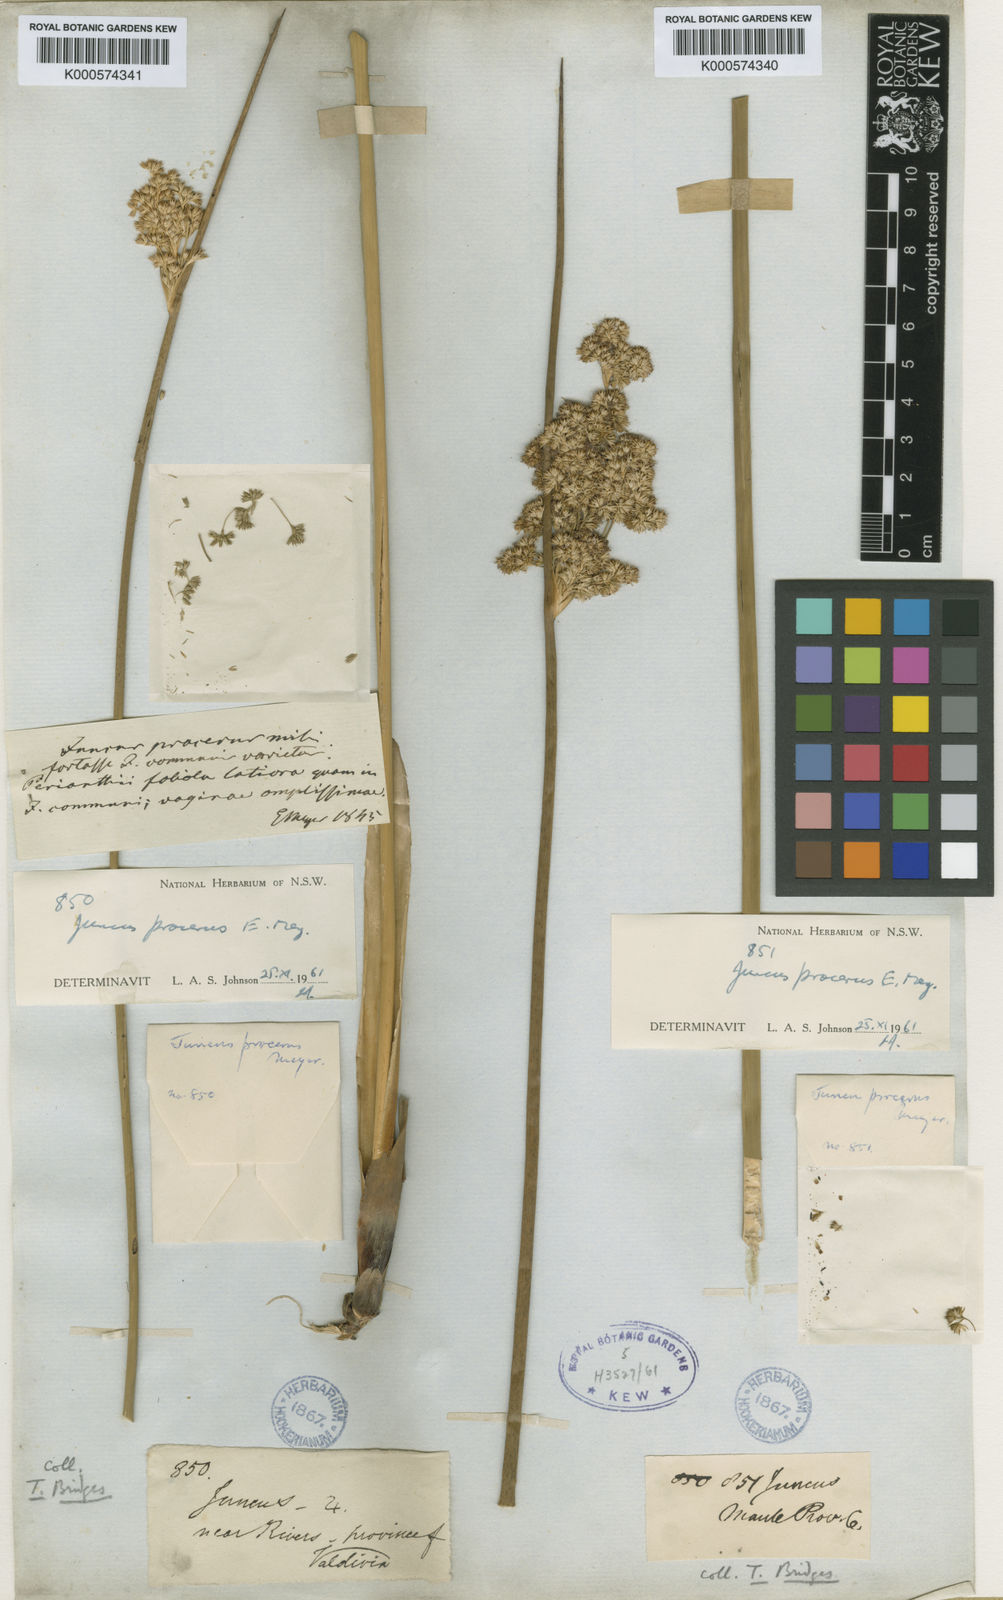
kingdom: Plantae
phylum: Tracheophyta
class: Liliopsida
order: Poales
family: Juncaceae
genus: Juncus
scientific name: Juncus procerus
